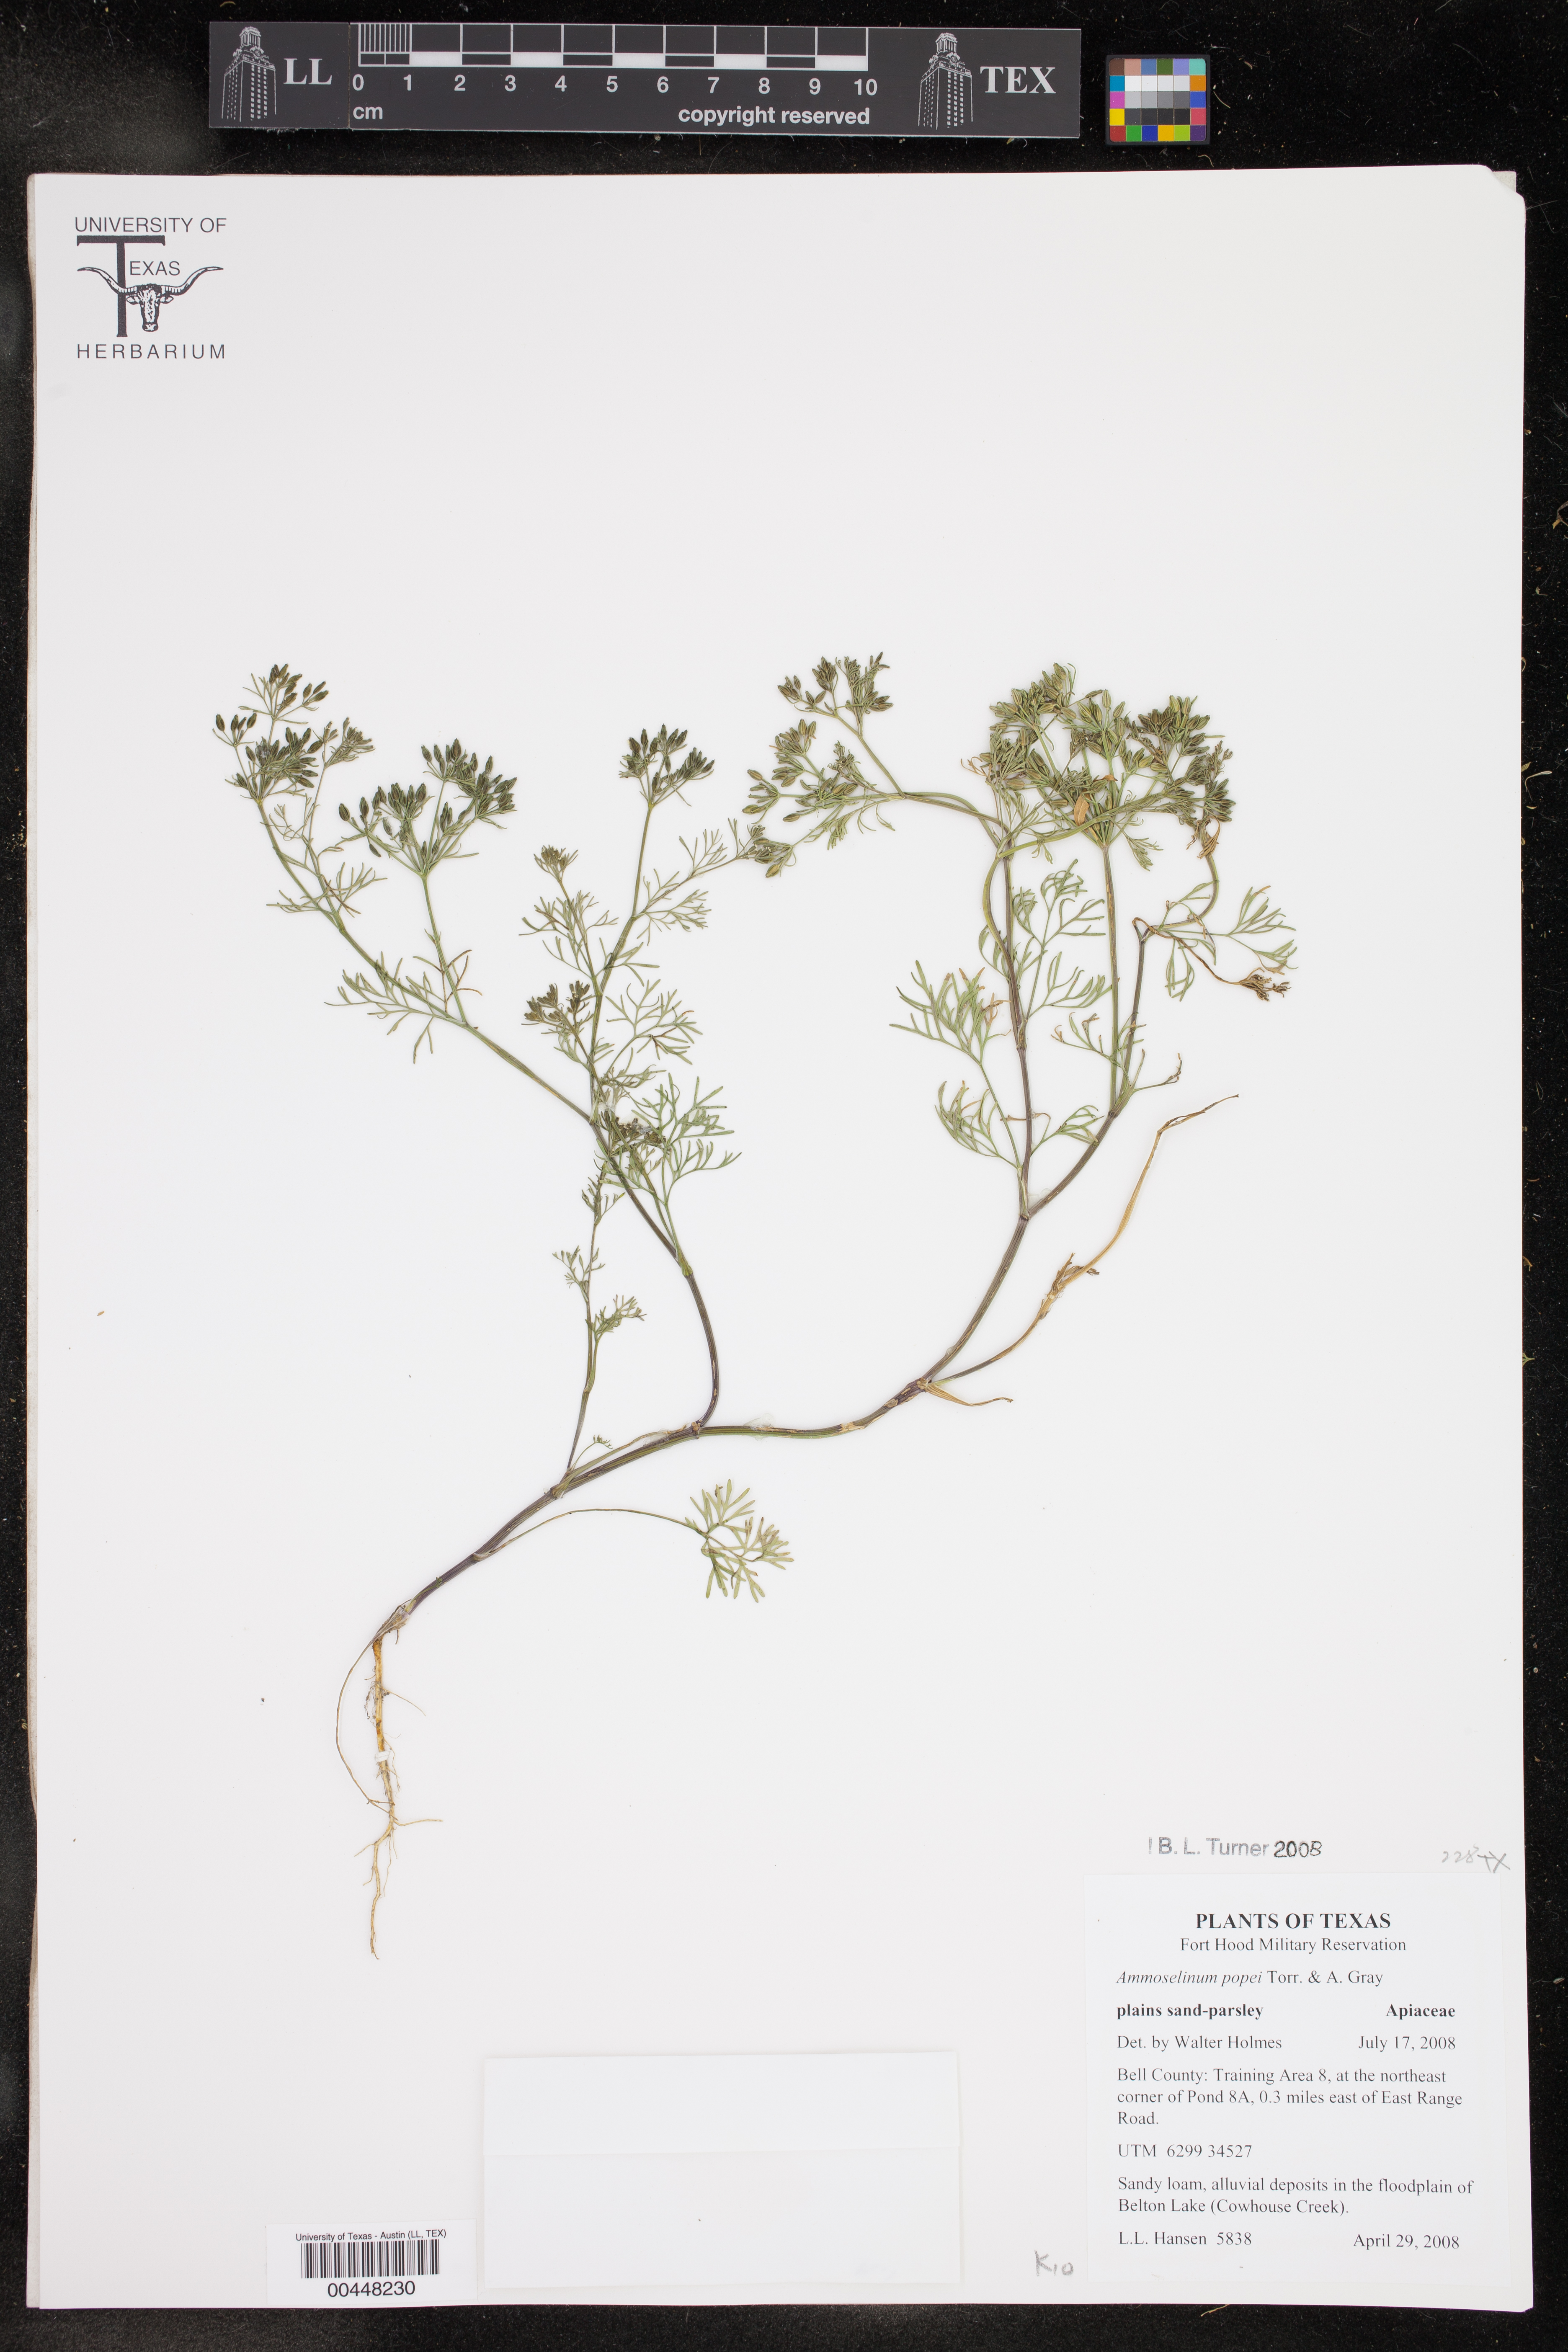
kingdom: Plantae
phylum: Tracheophyta
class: Magnoliopsida
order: Apiales
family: Apiaceae
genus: Ammoselinum
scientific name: Ammoselinum popei
